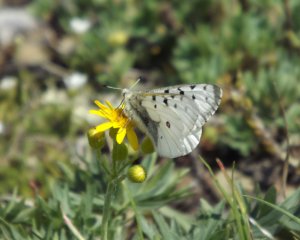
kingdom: Animalia
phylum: Arthropoda
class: Insecta
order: Lepidoptera
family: Papilionidae
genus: Parnassius
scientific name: Parnassius smintheus
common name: Rocky Mountain Parnassian
